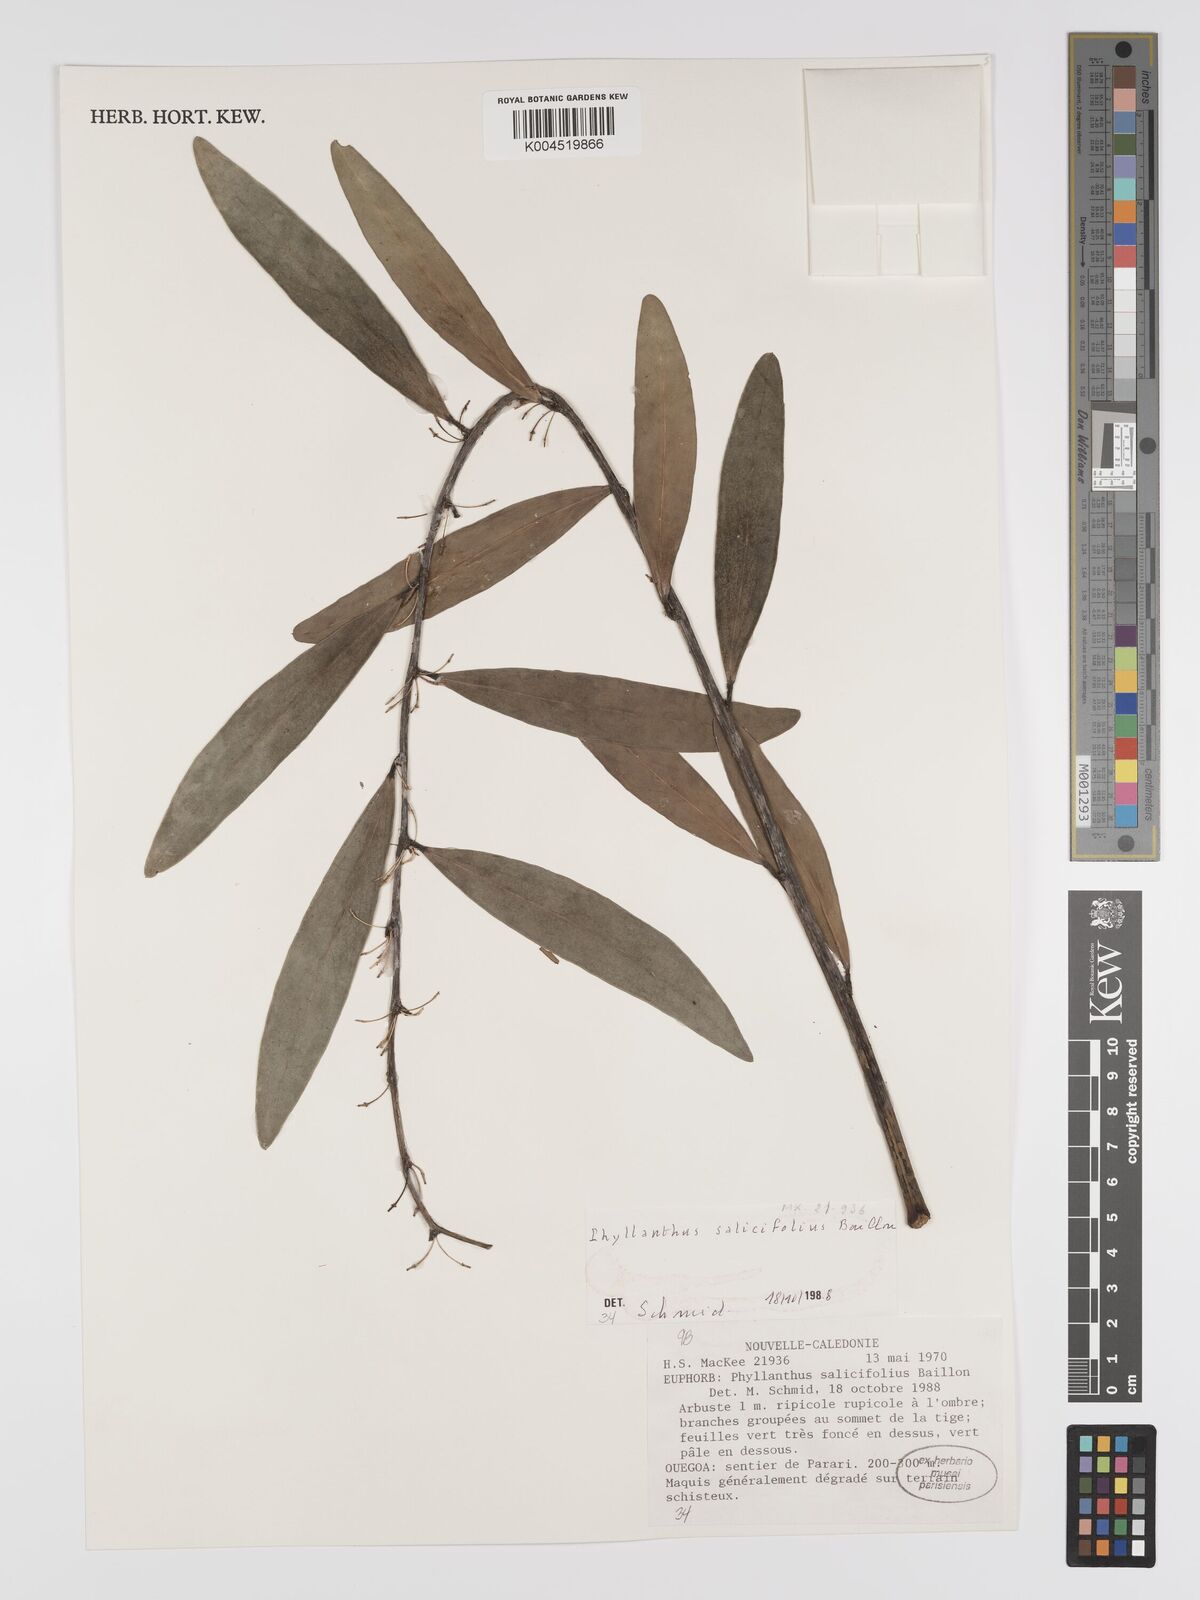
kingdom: Plantae
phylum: Tracheophyta
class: Magnoliopsida
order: Malpighiales
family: Phyllanthaceae
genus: Phyllanthus
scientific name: Phyllanthus salicifolius
